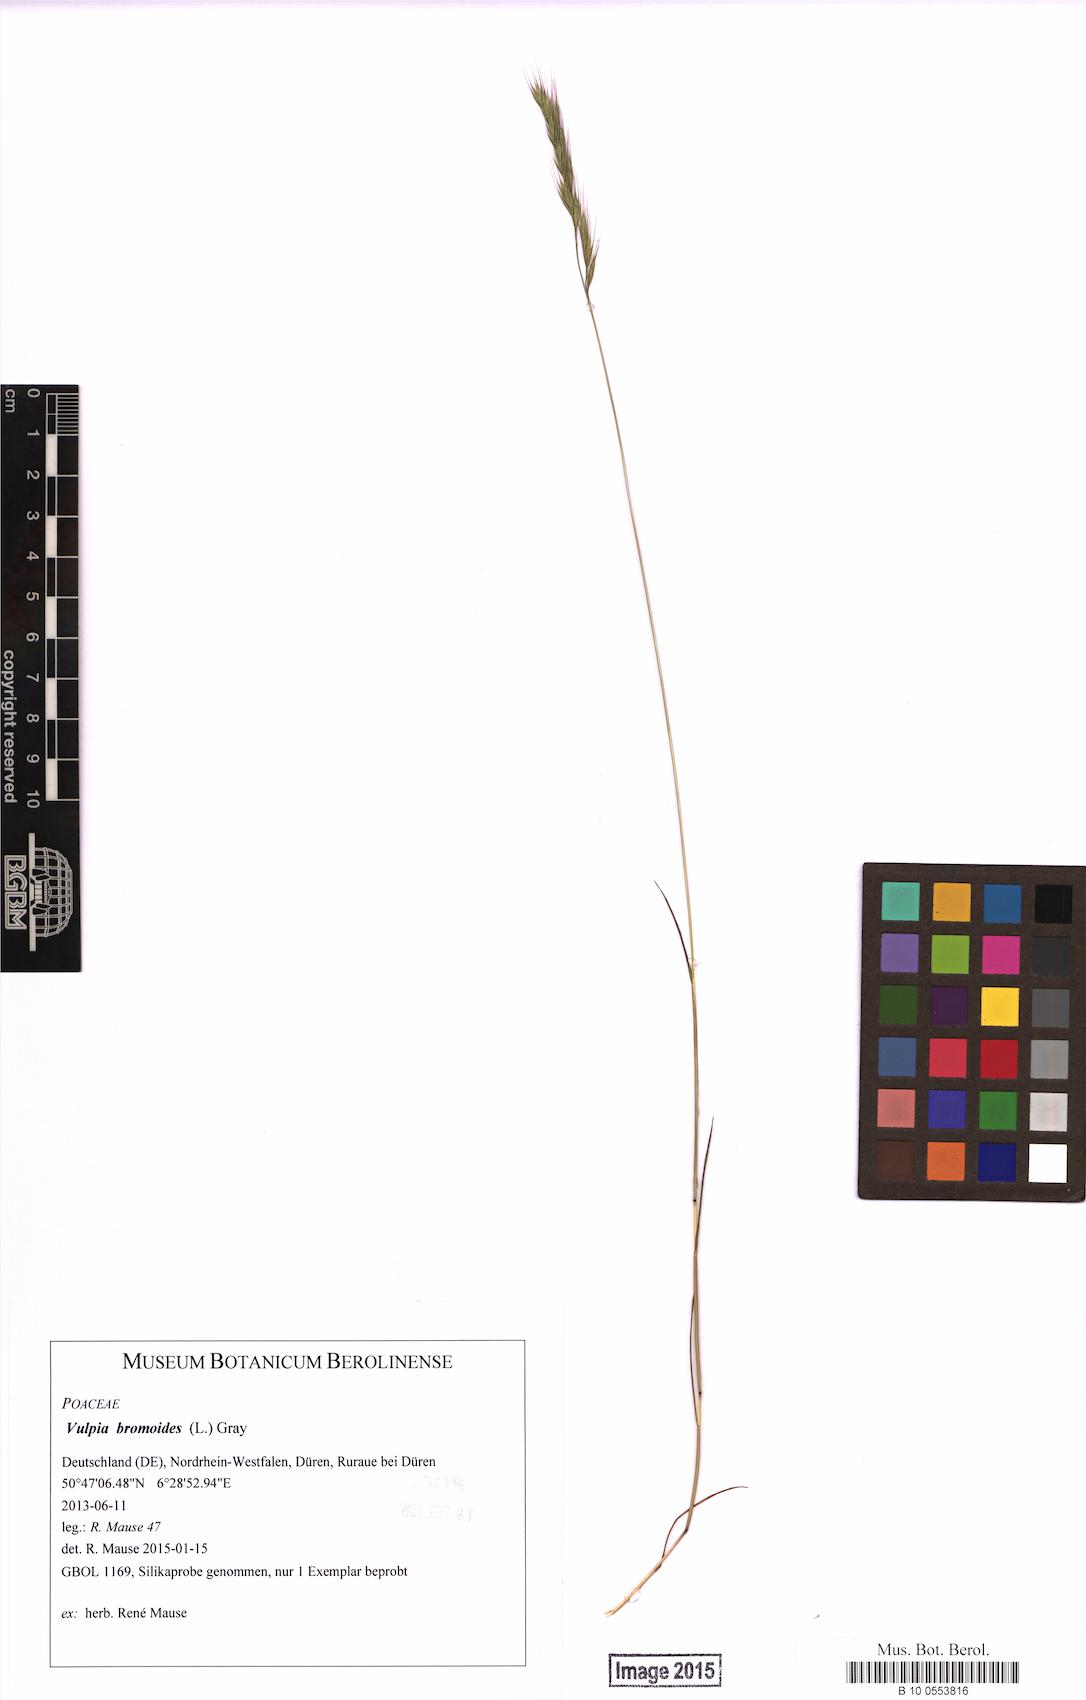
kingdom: Plantae
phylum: Tracheophyta
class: Liliopsida
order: Poales
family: Poaceae
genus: Festuca
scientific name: Festuca bromoides
